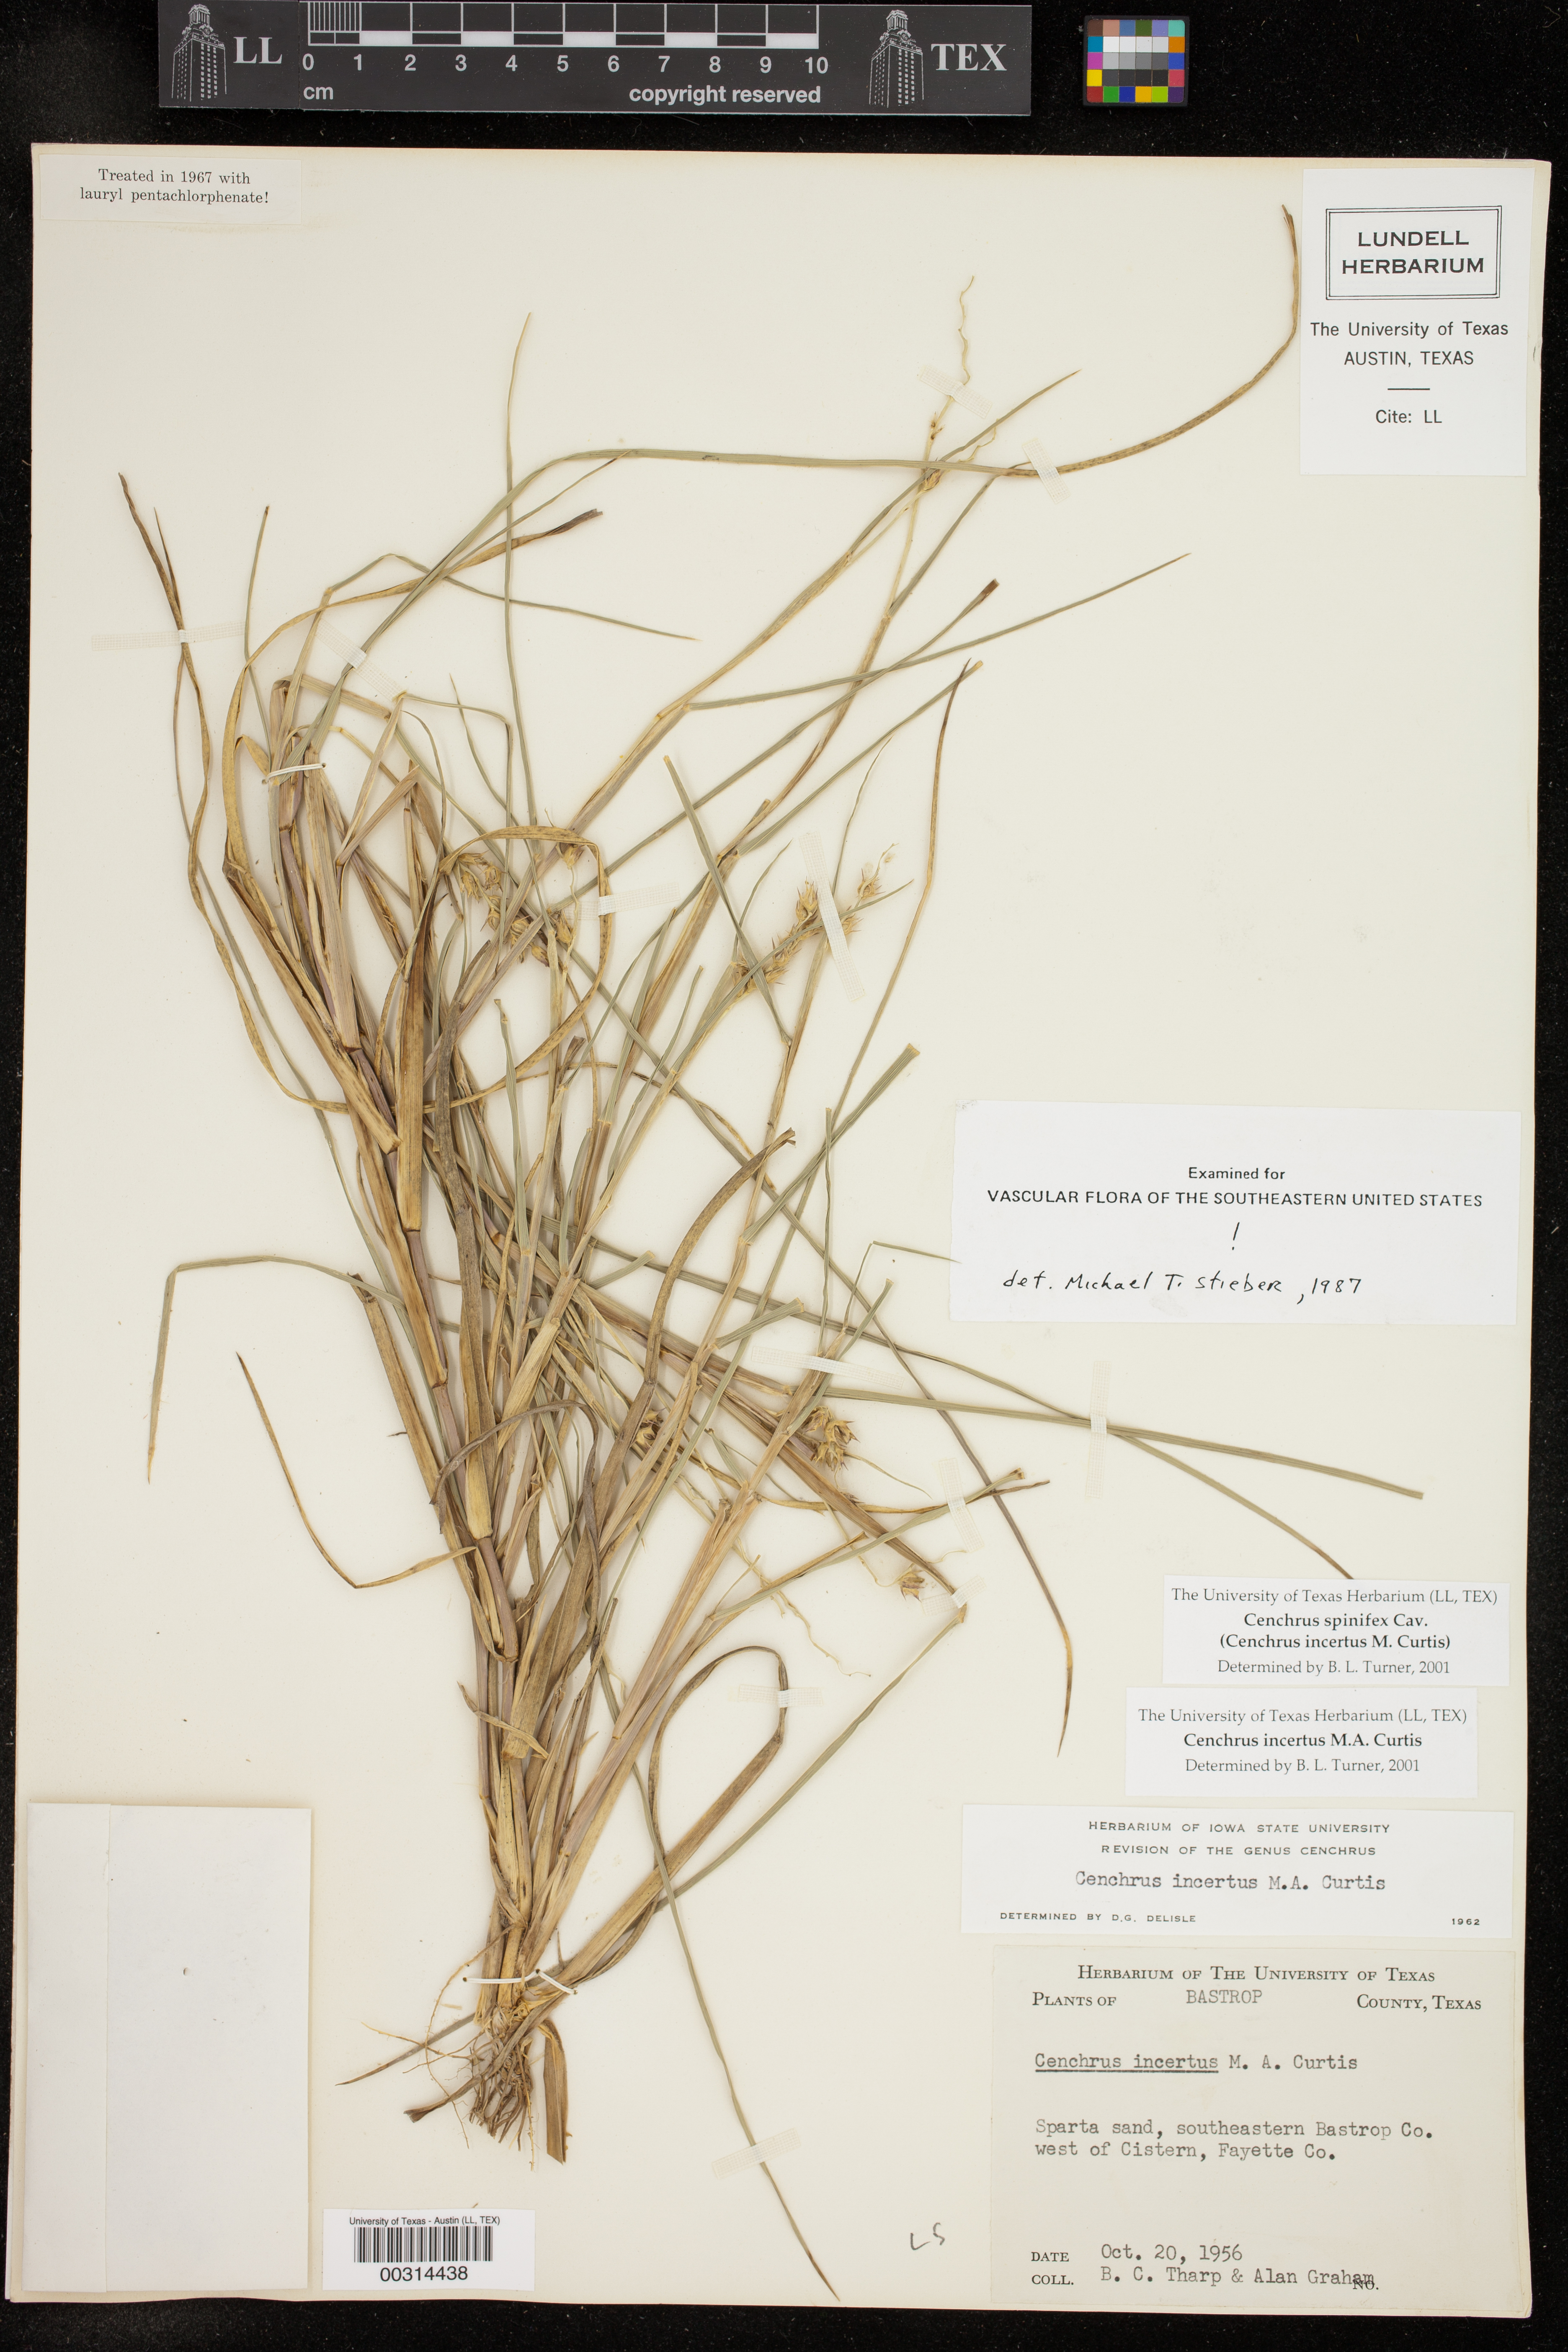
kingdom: Plantae
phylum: Tracheophyta
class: Liliopsida
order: Poales
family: Poaceae
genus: Cenchrus
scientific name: Cenchrus spinifex
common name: Coast sandbur
